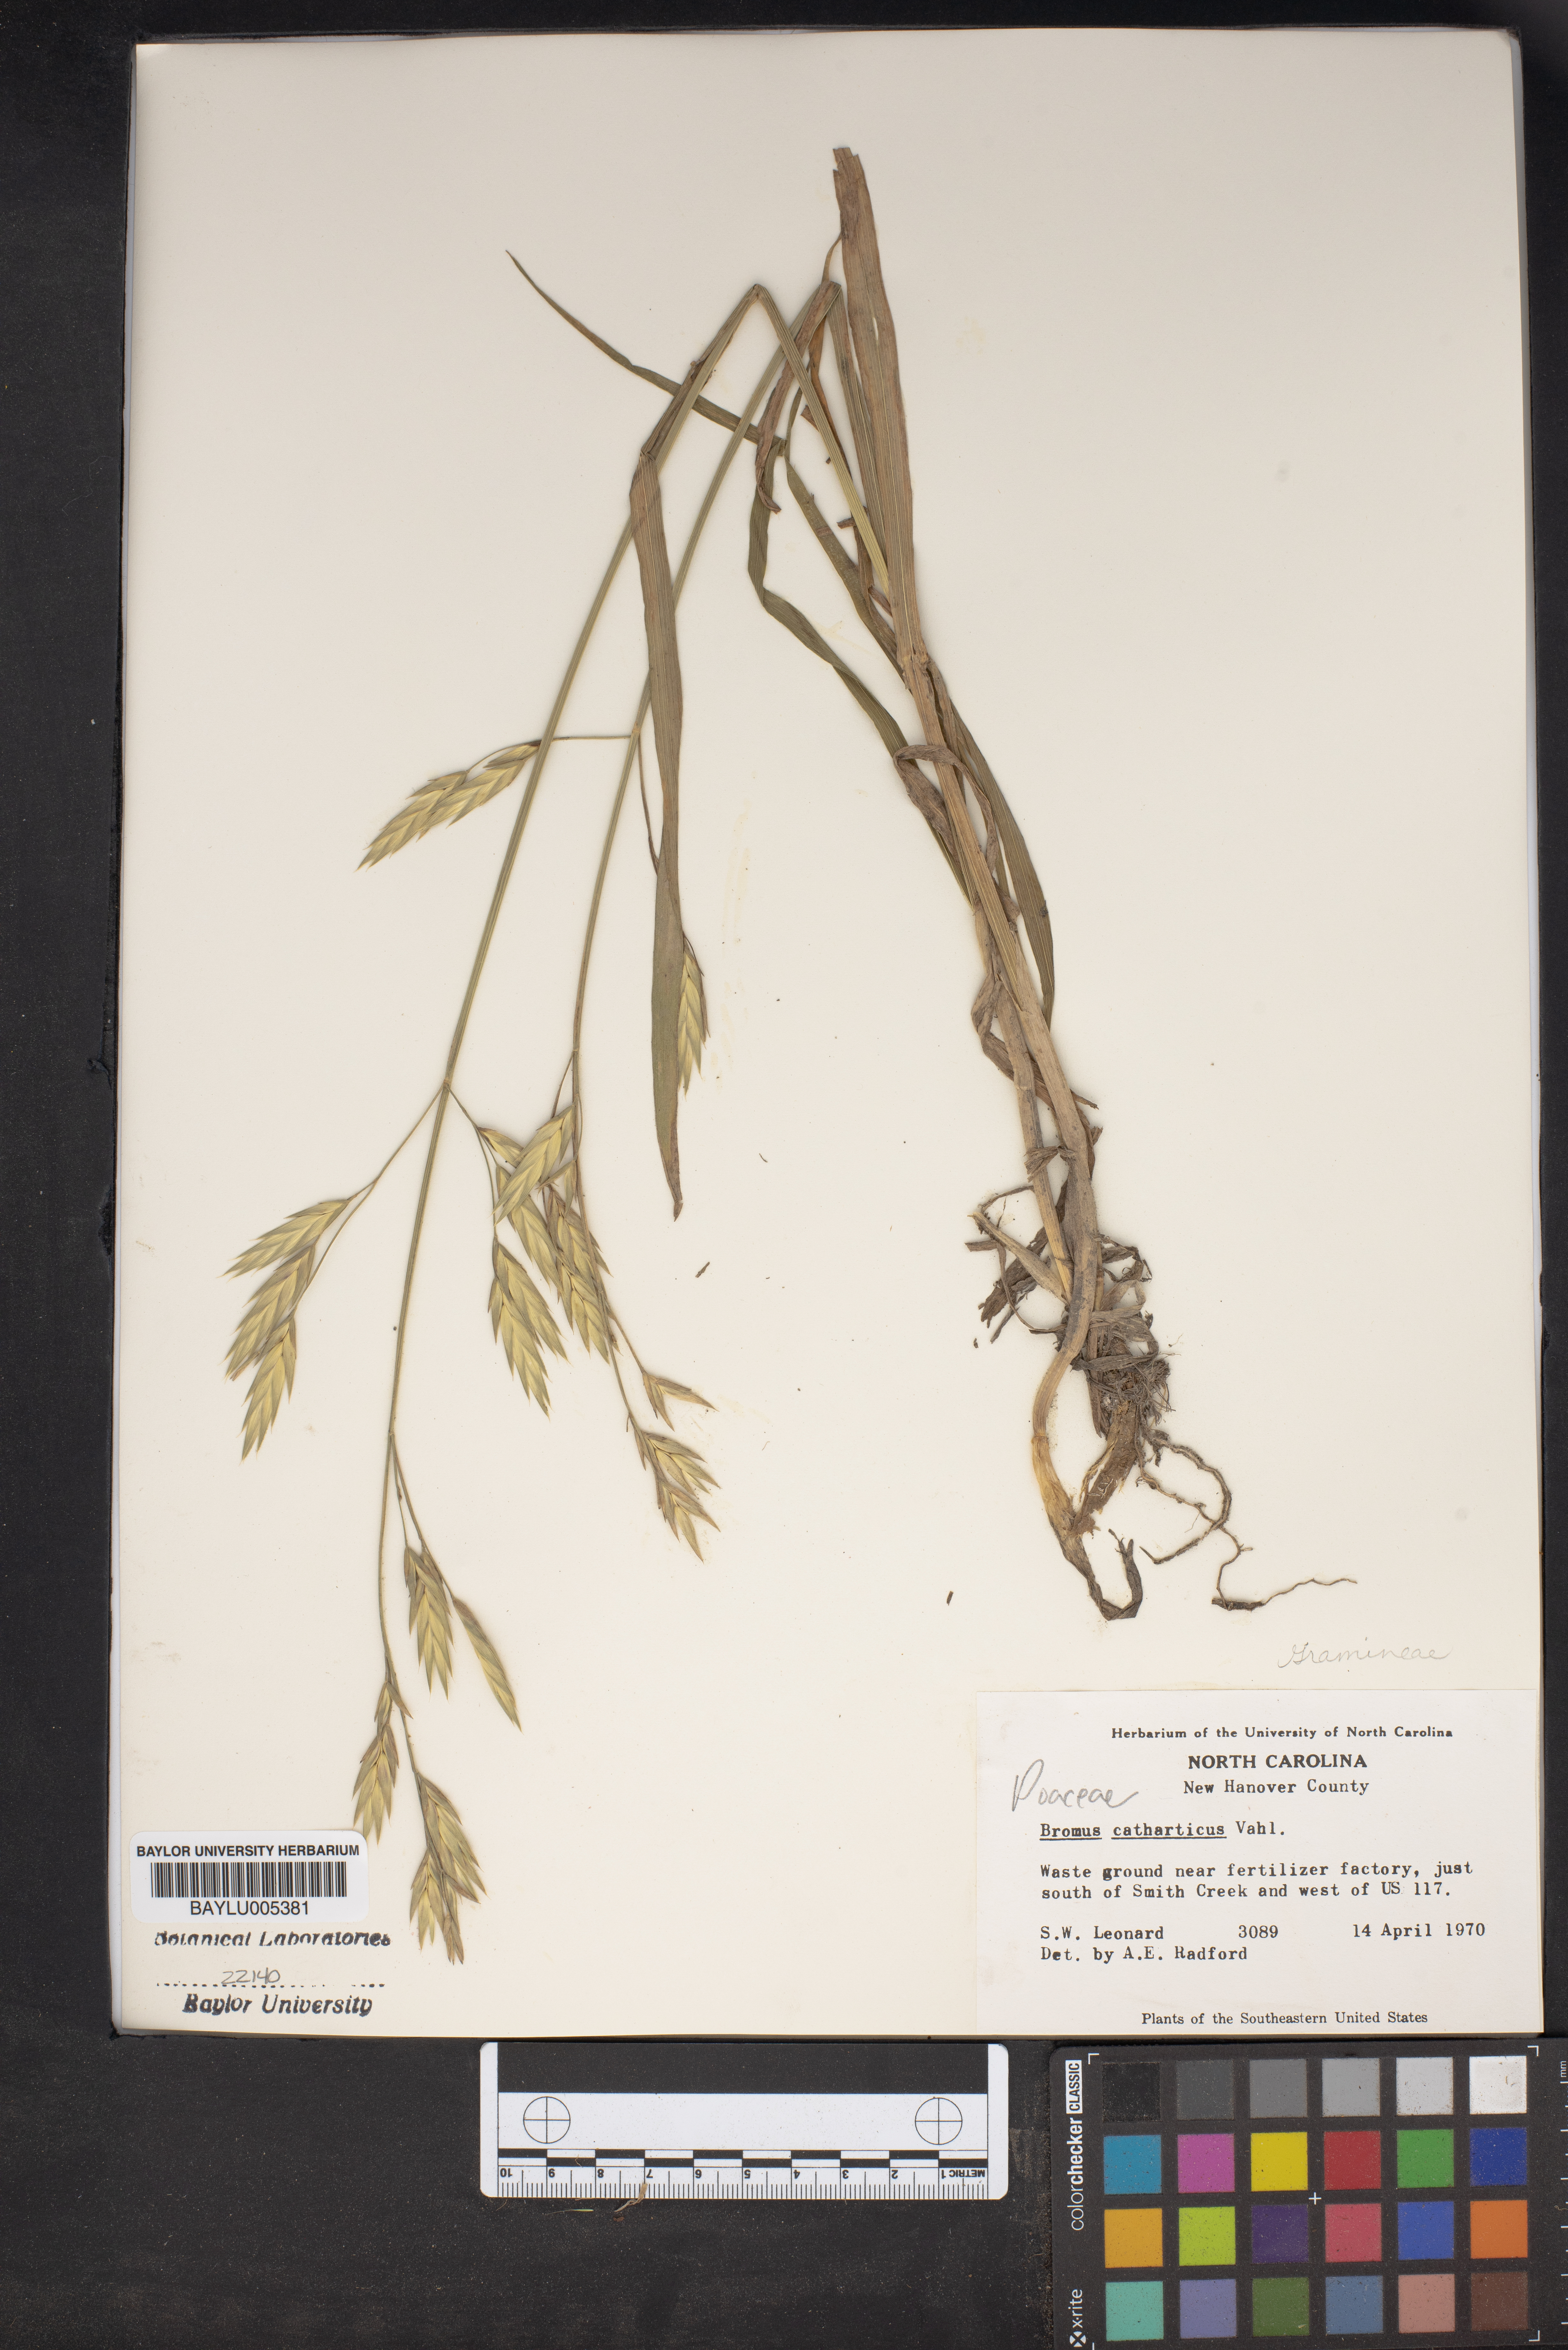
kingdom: Plantae
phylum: Tracheophyta
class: Liliopsida
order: Poales
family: Poaceae
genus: Bromus
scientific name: Bromus catharticus
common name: Rescuegrass
